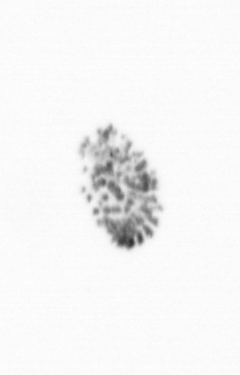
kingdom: Chromista
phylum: Ochrophyta
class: Bacillariophyceae
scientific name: Bacillariophyceae
